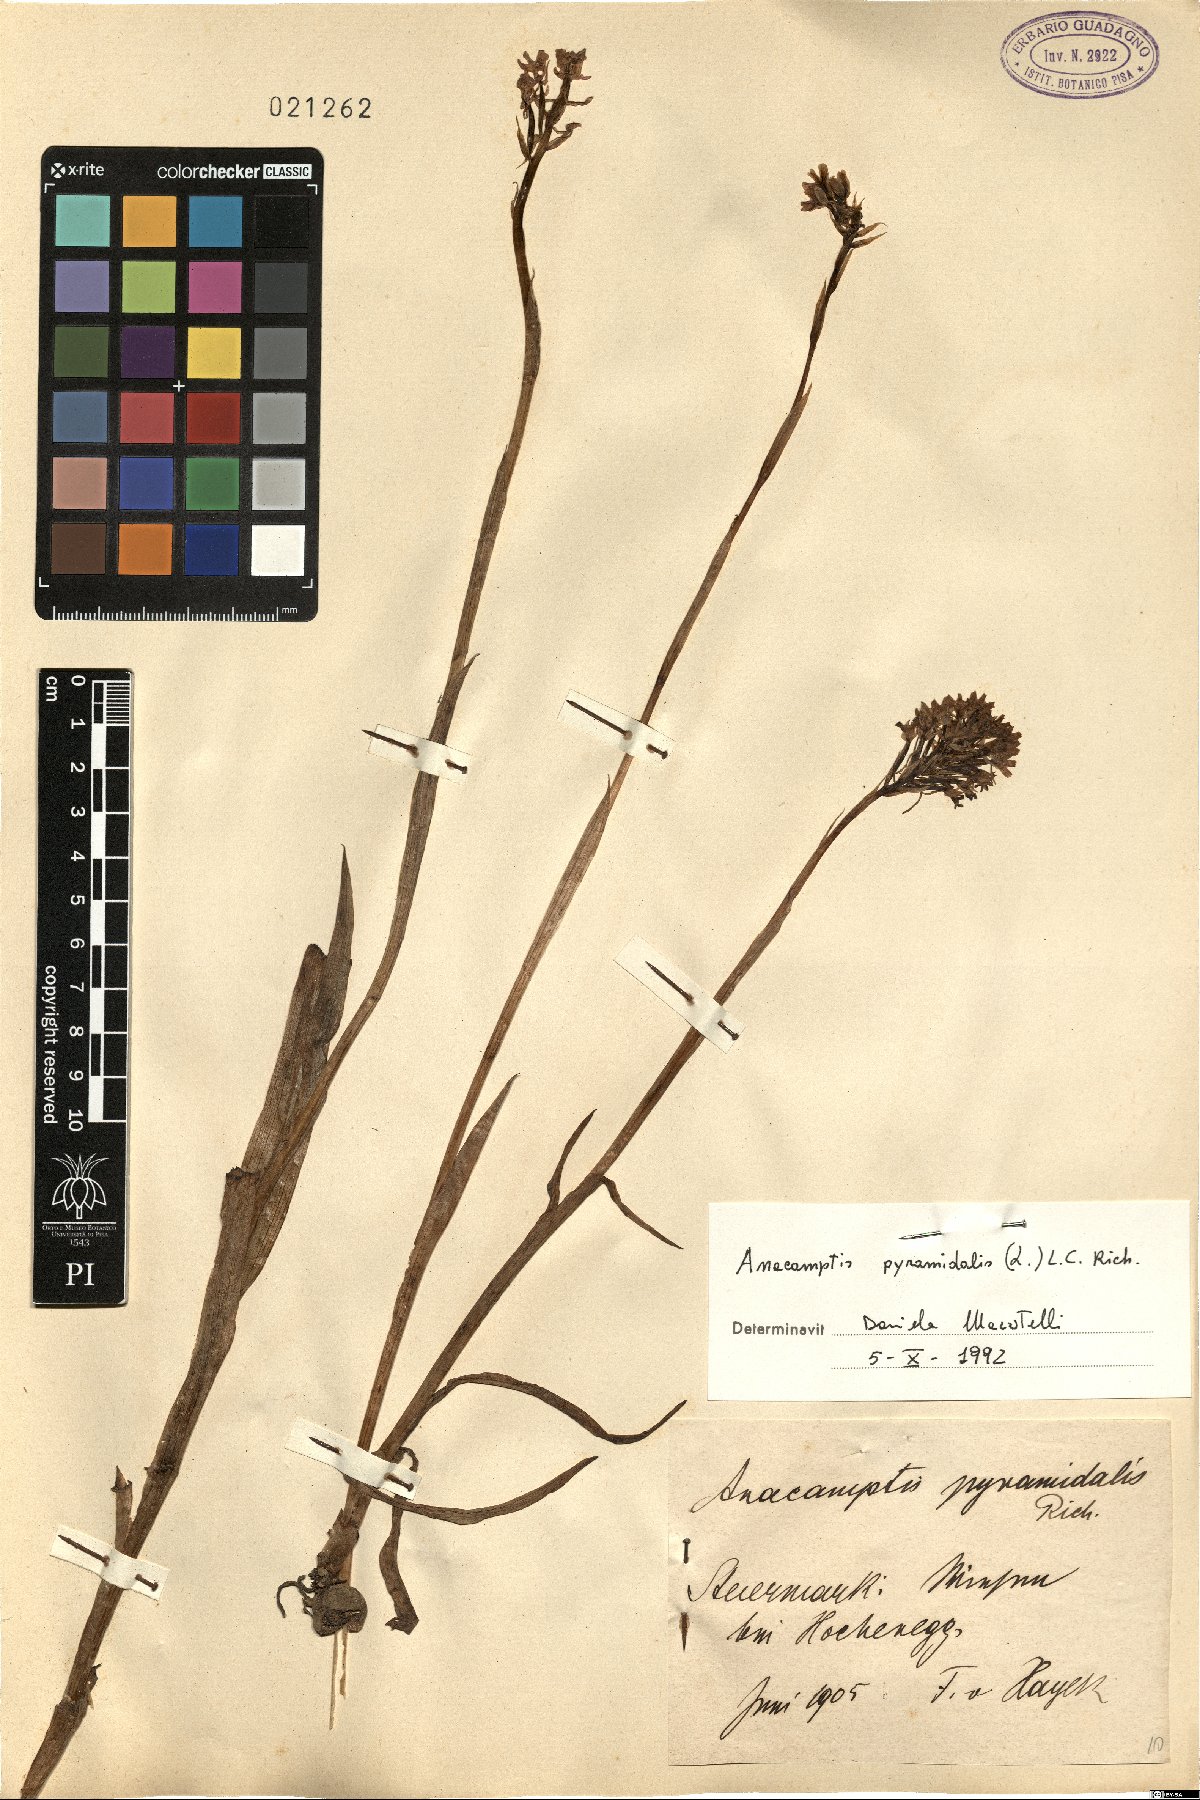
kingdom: Plantae
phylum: Tracheophyta
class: Liliopsida
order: Asparagales
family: Orchidaceae
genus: Anacamptis
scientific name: Anacamptis pyramidalis
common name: Pyramidal orchid
